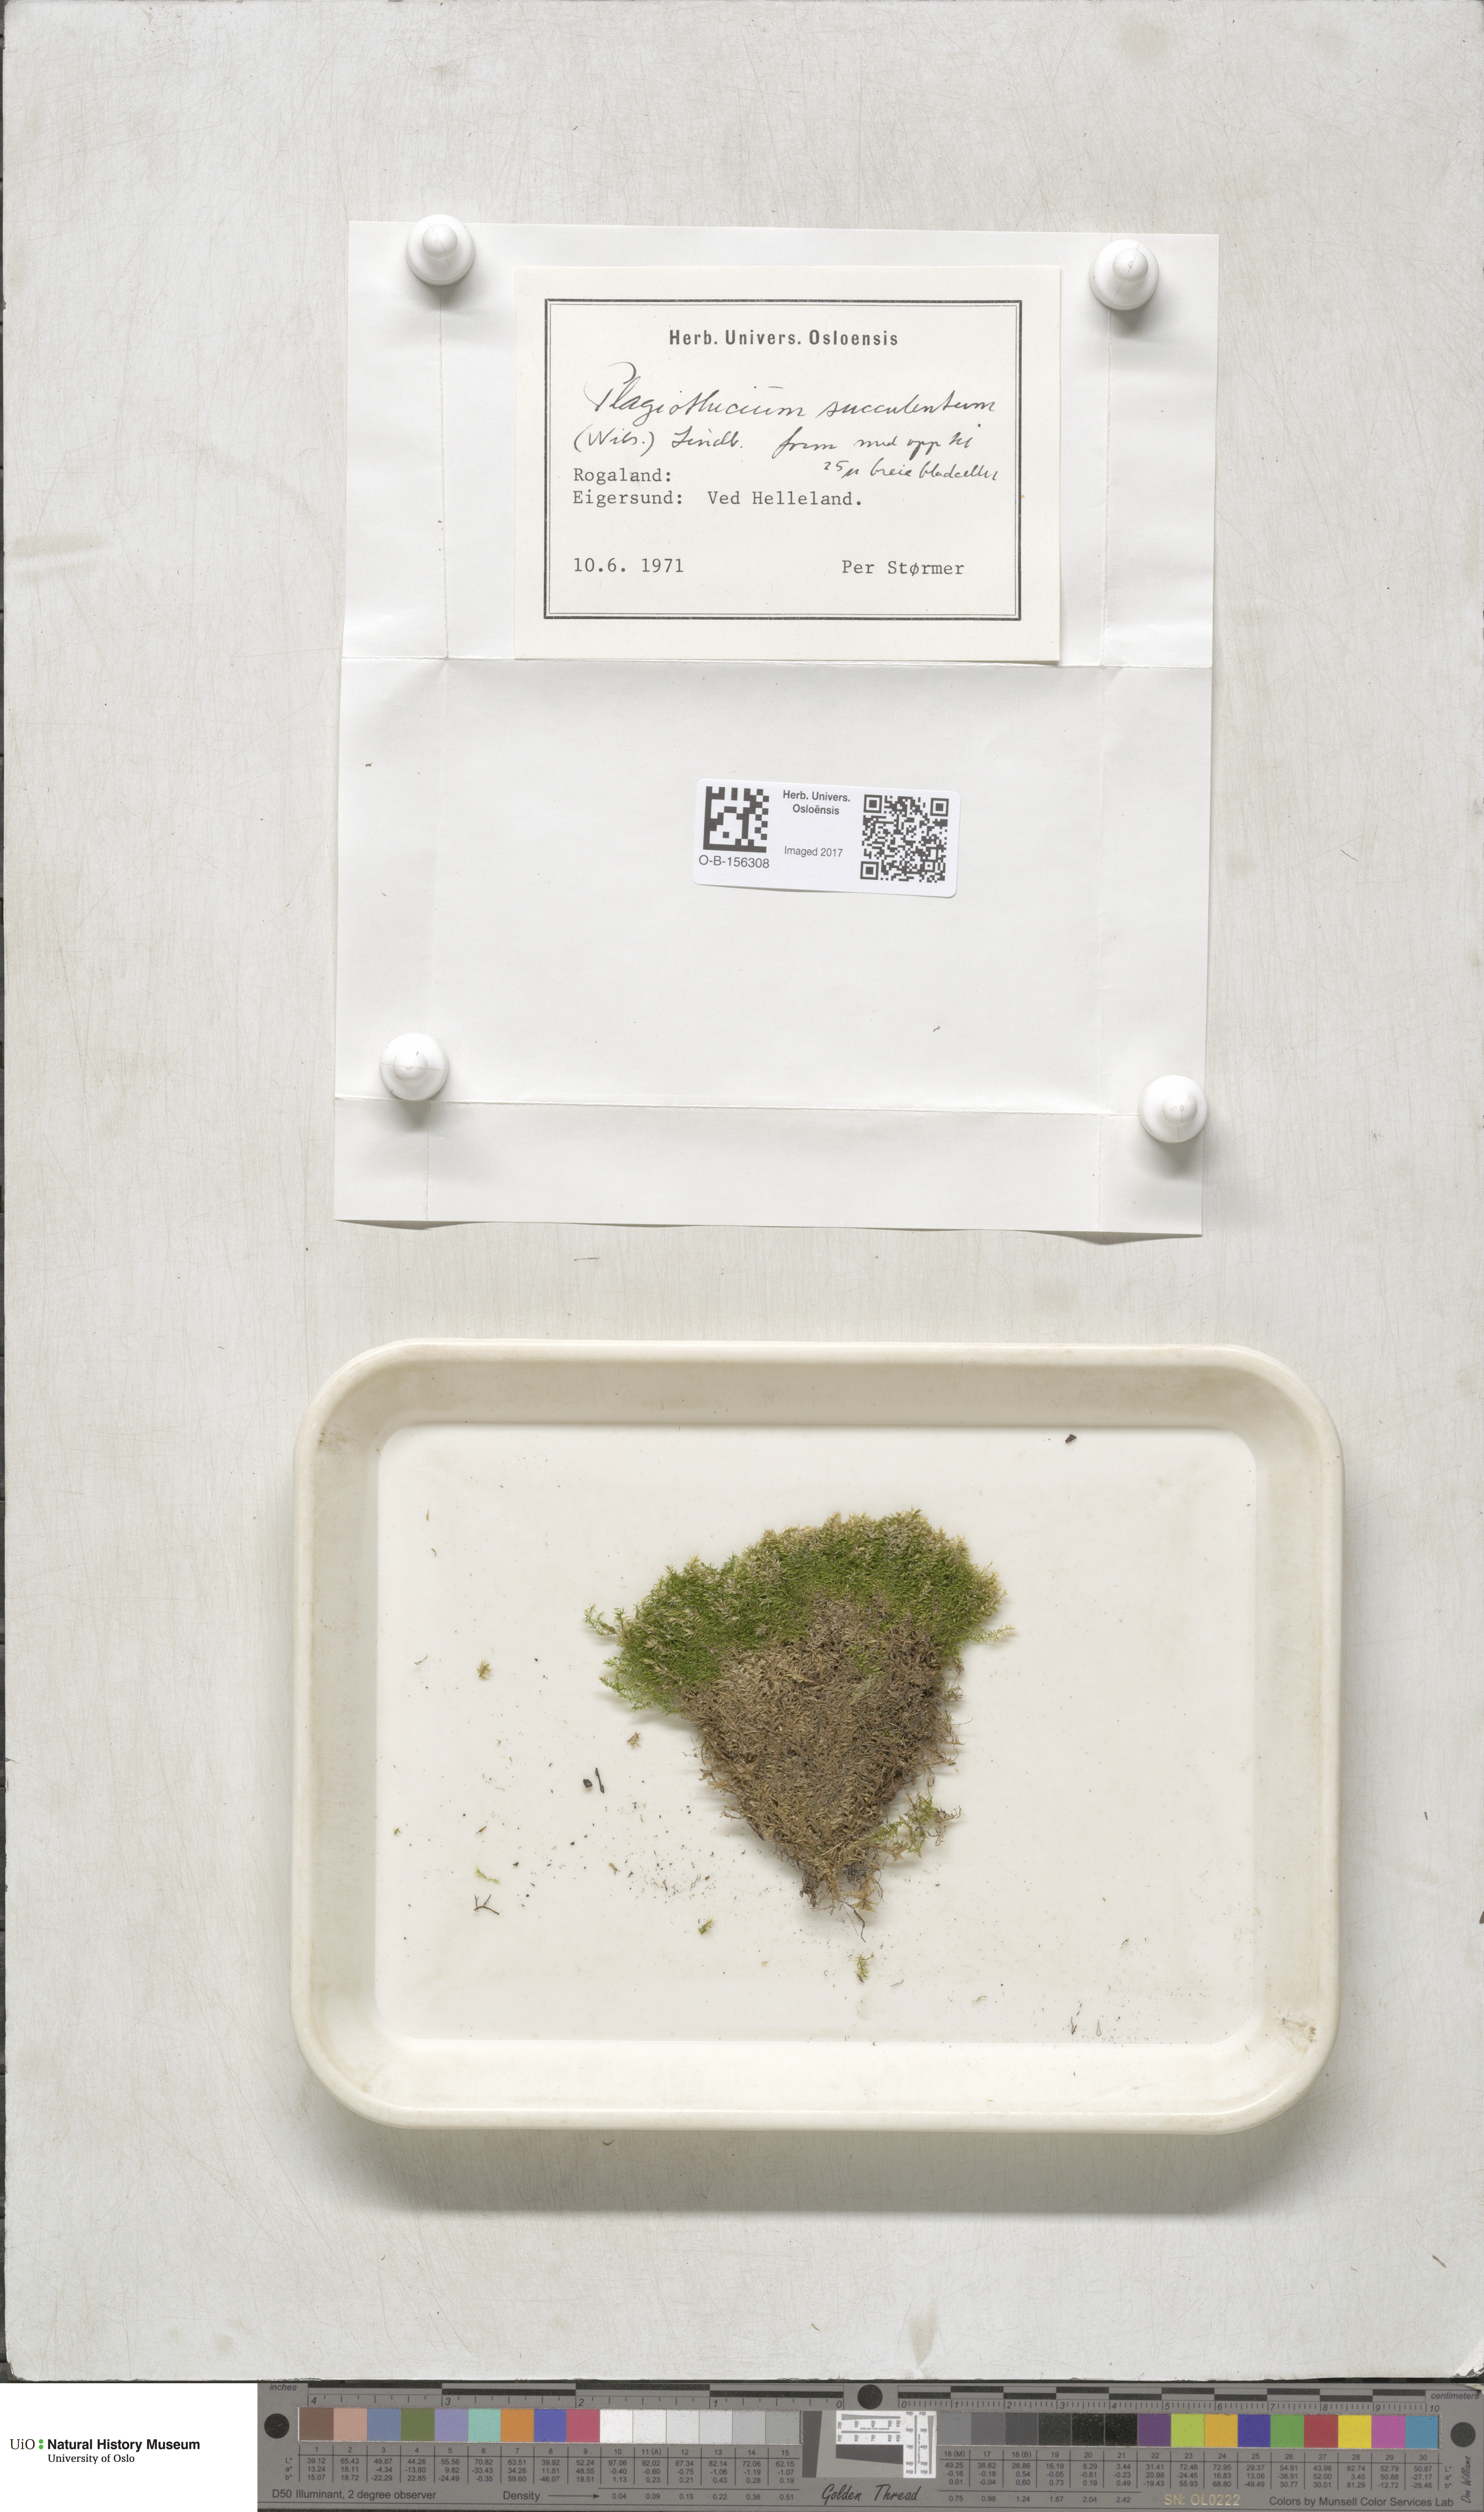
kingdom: Plantae
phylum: Bryophyta
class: Bryopsida
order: Hypnales
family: Plagiotheciaceae
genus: Plagiothecium
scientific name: Plagiothecium nemorale
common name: Woodsy silk-moss
